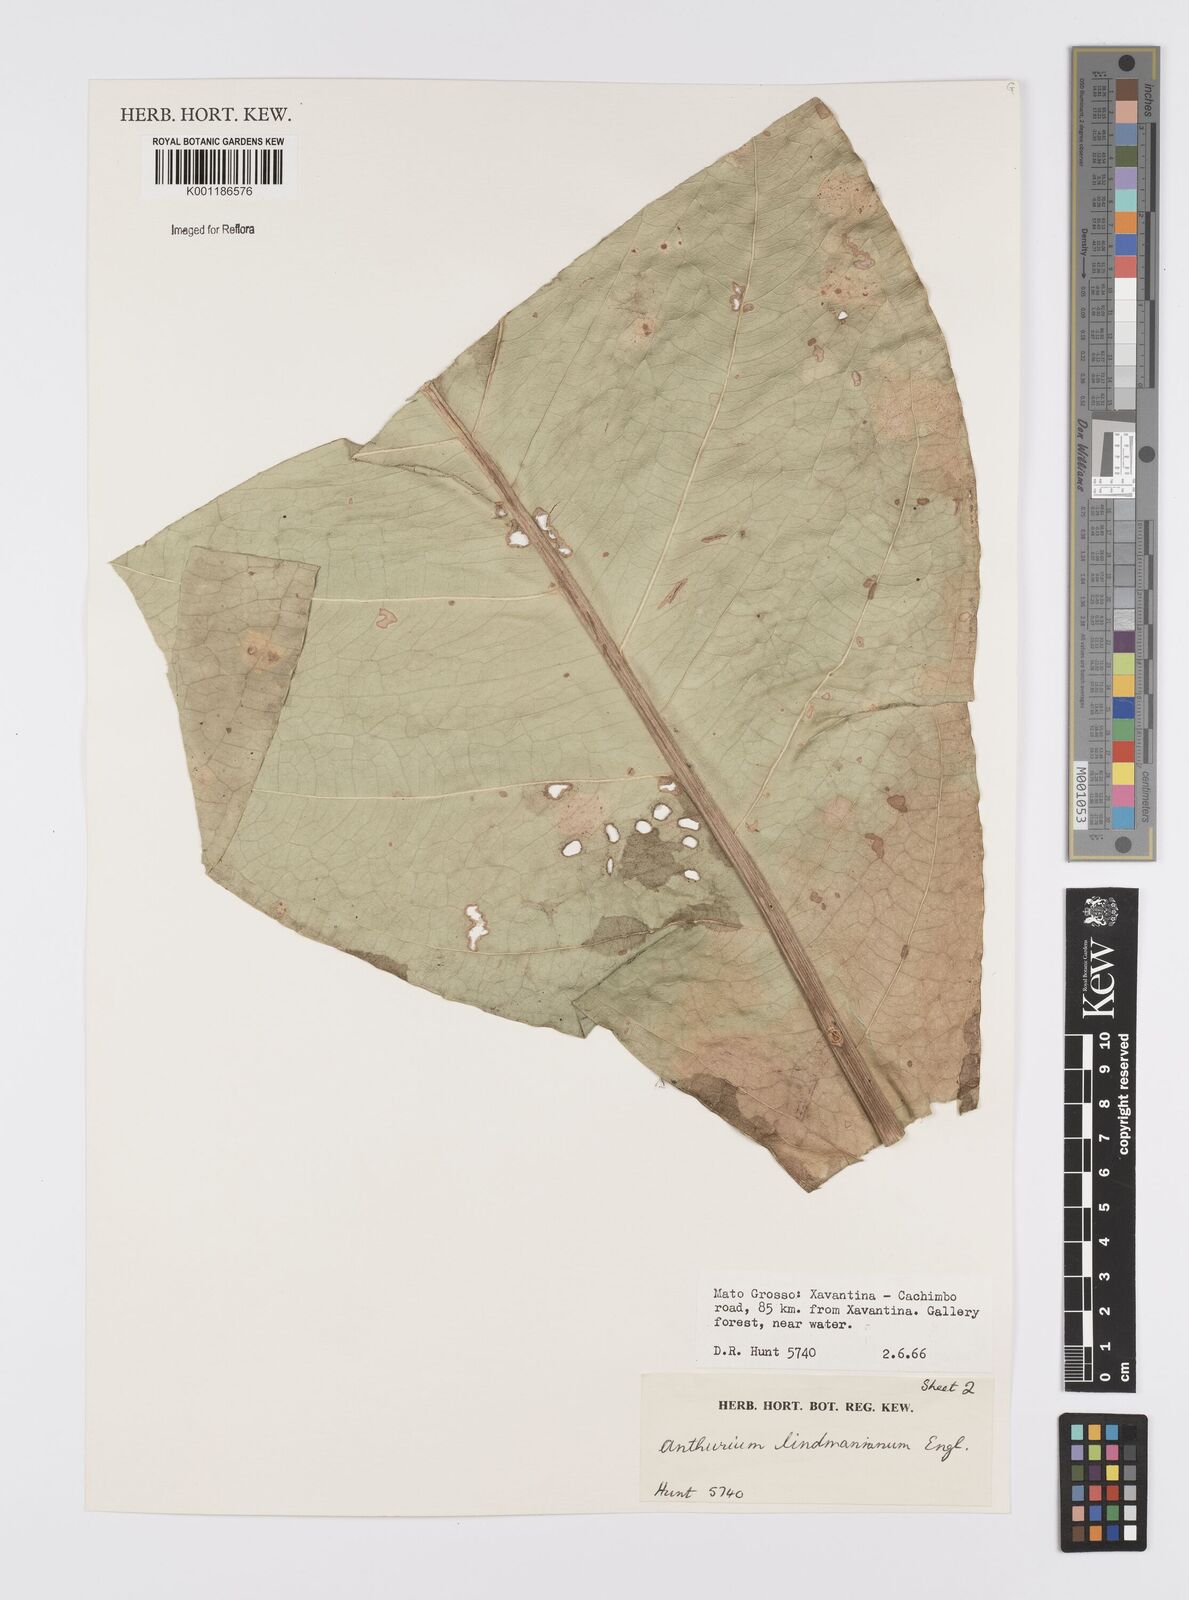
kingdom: Plantae
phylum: Tracheophyta
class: Liliopsida
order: Alismatales
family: Araceae
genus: Anthurium
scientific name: Anthurium lindmanianum
